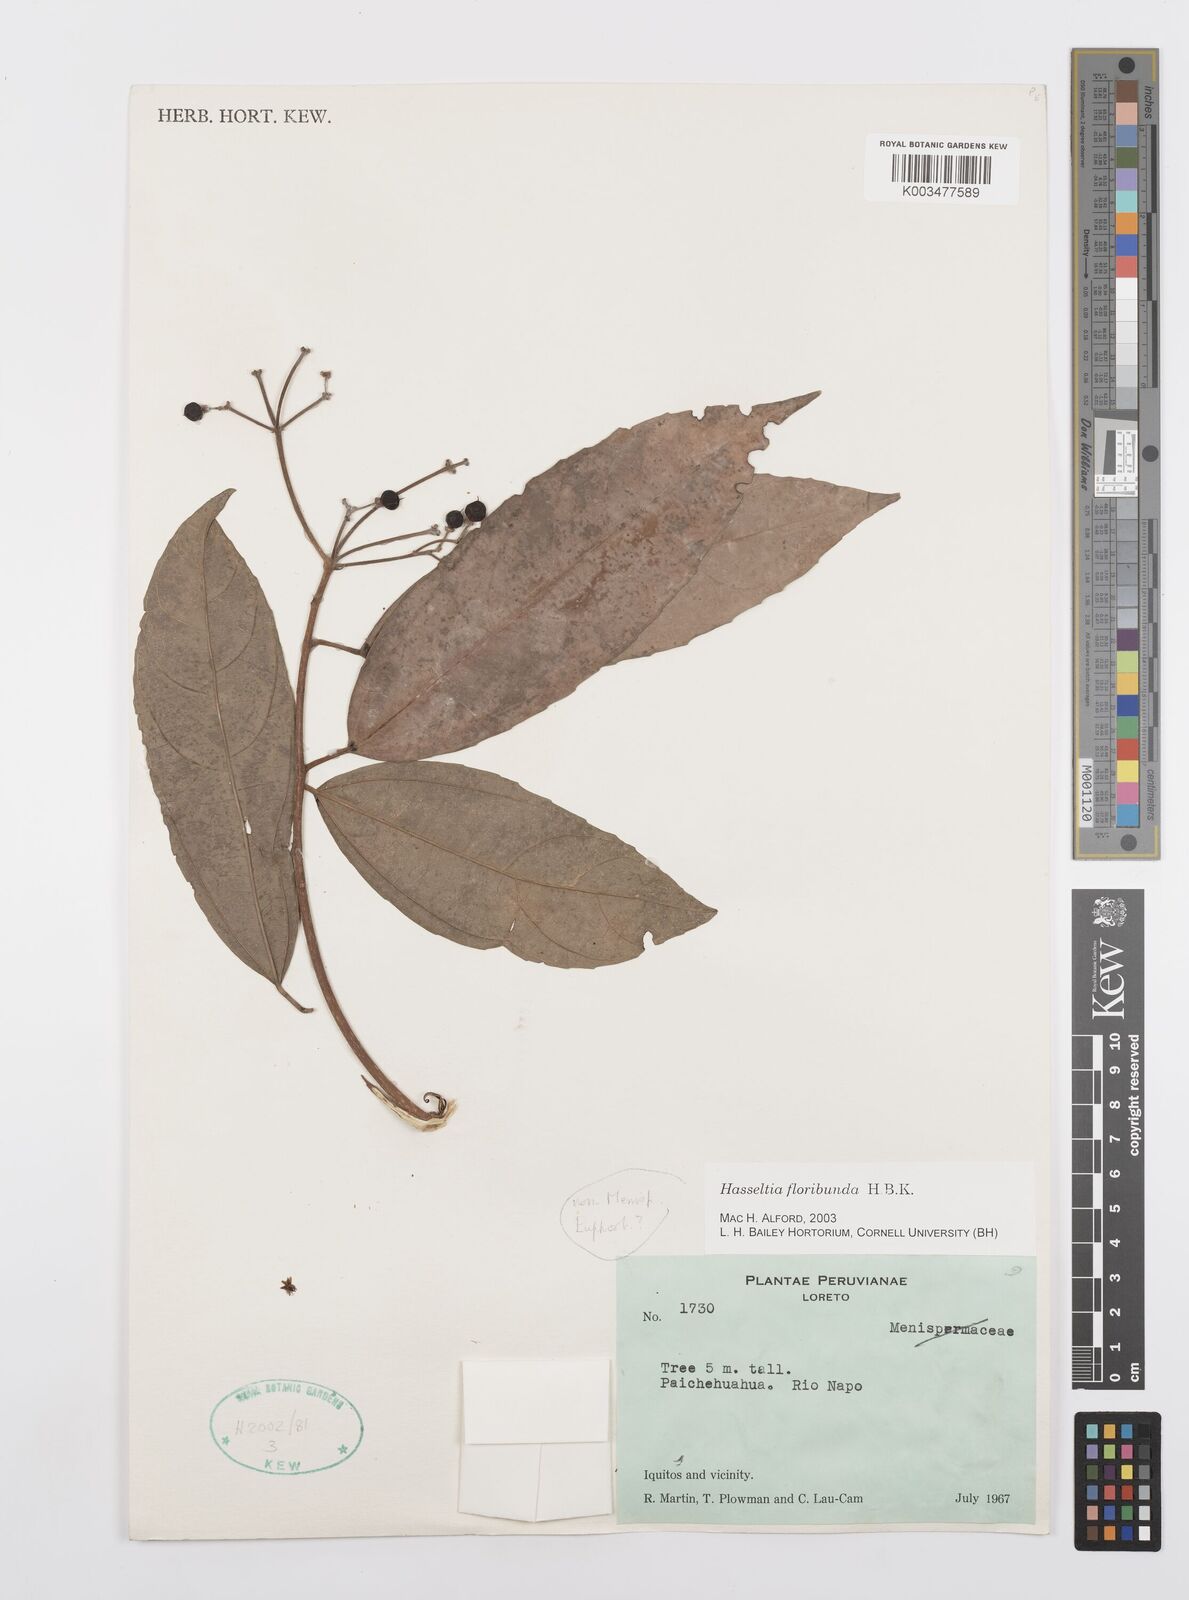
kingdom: Plantae
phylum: Tracheophyta
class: Magnoliopsida
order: Malpighiales
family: Salicaceae
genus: Hasseltia
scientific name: Hasseltia floribunda
